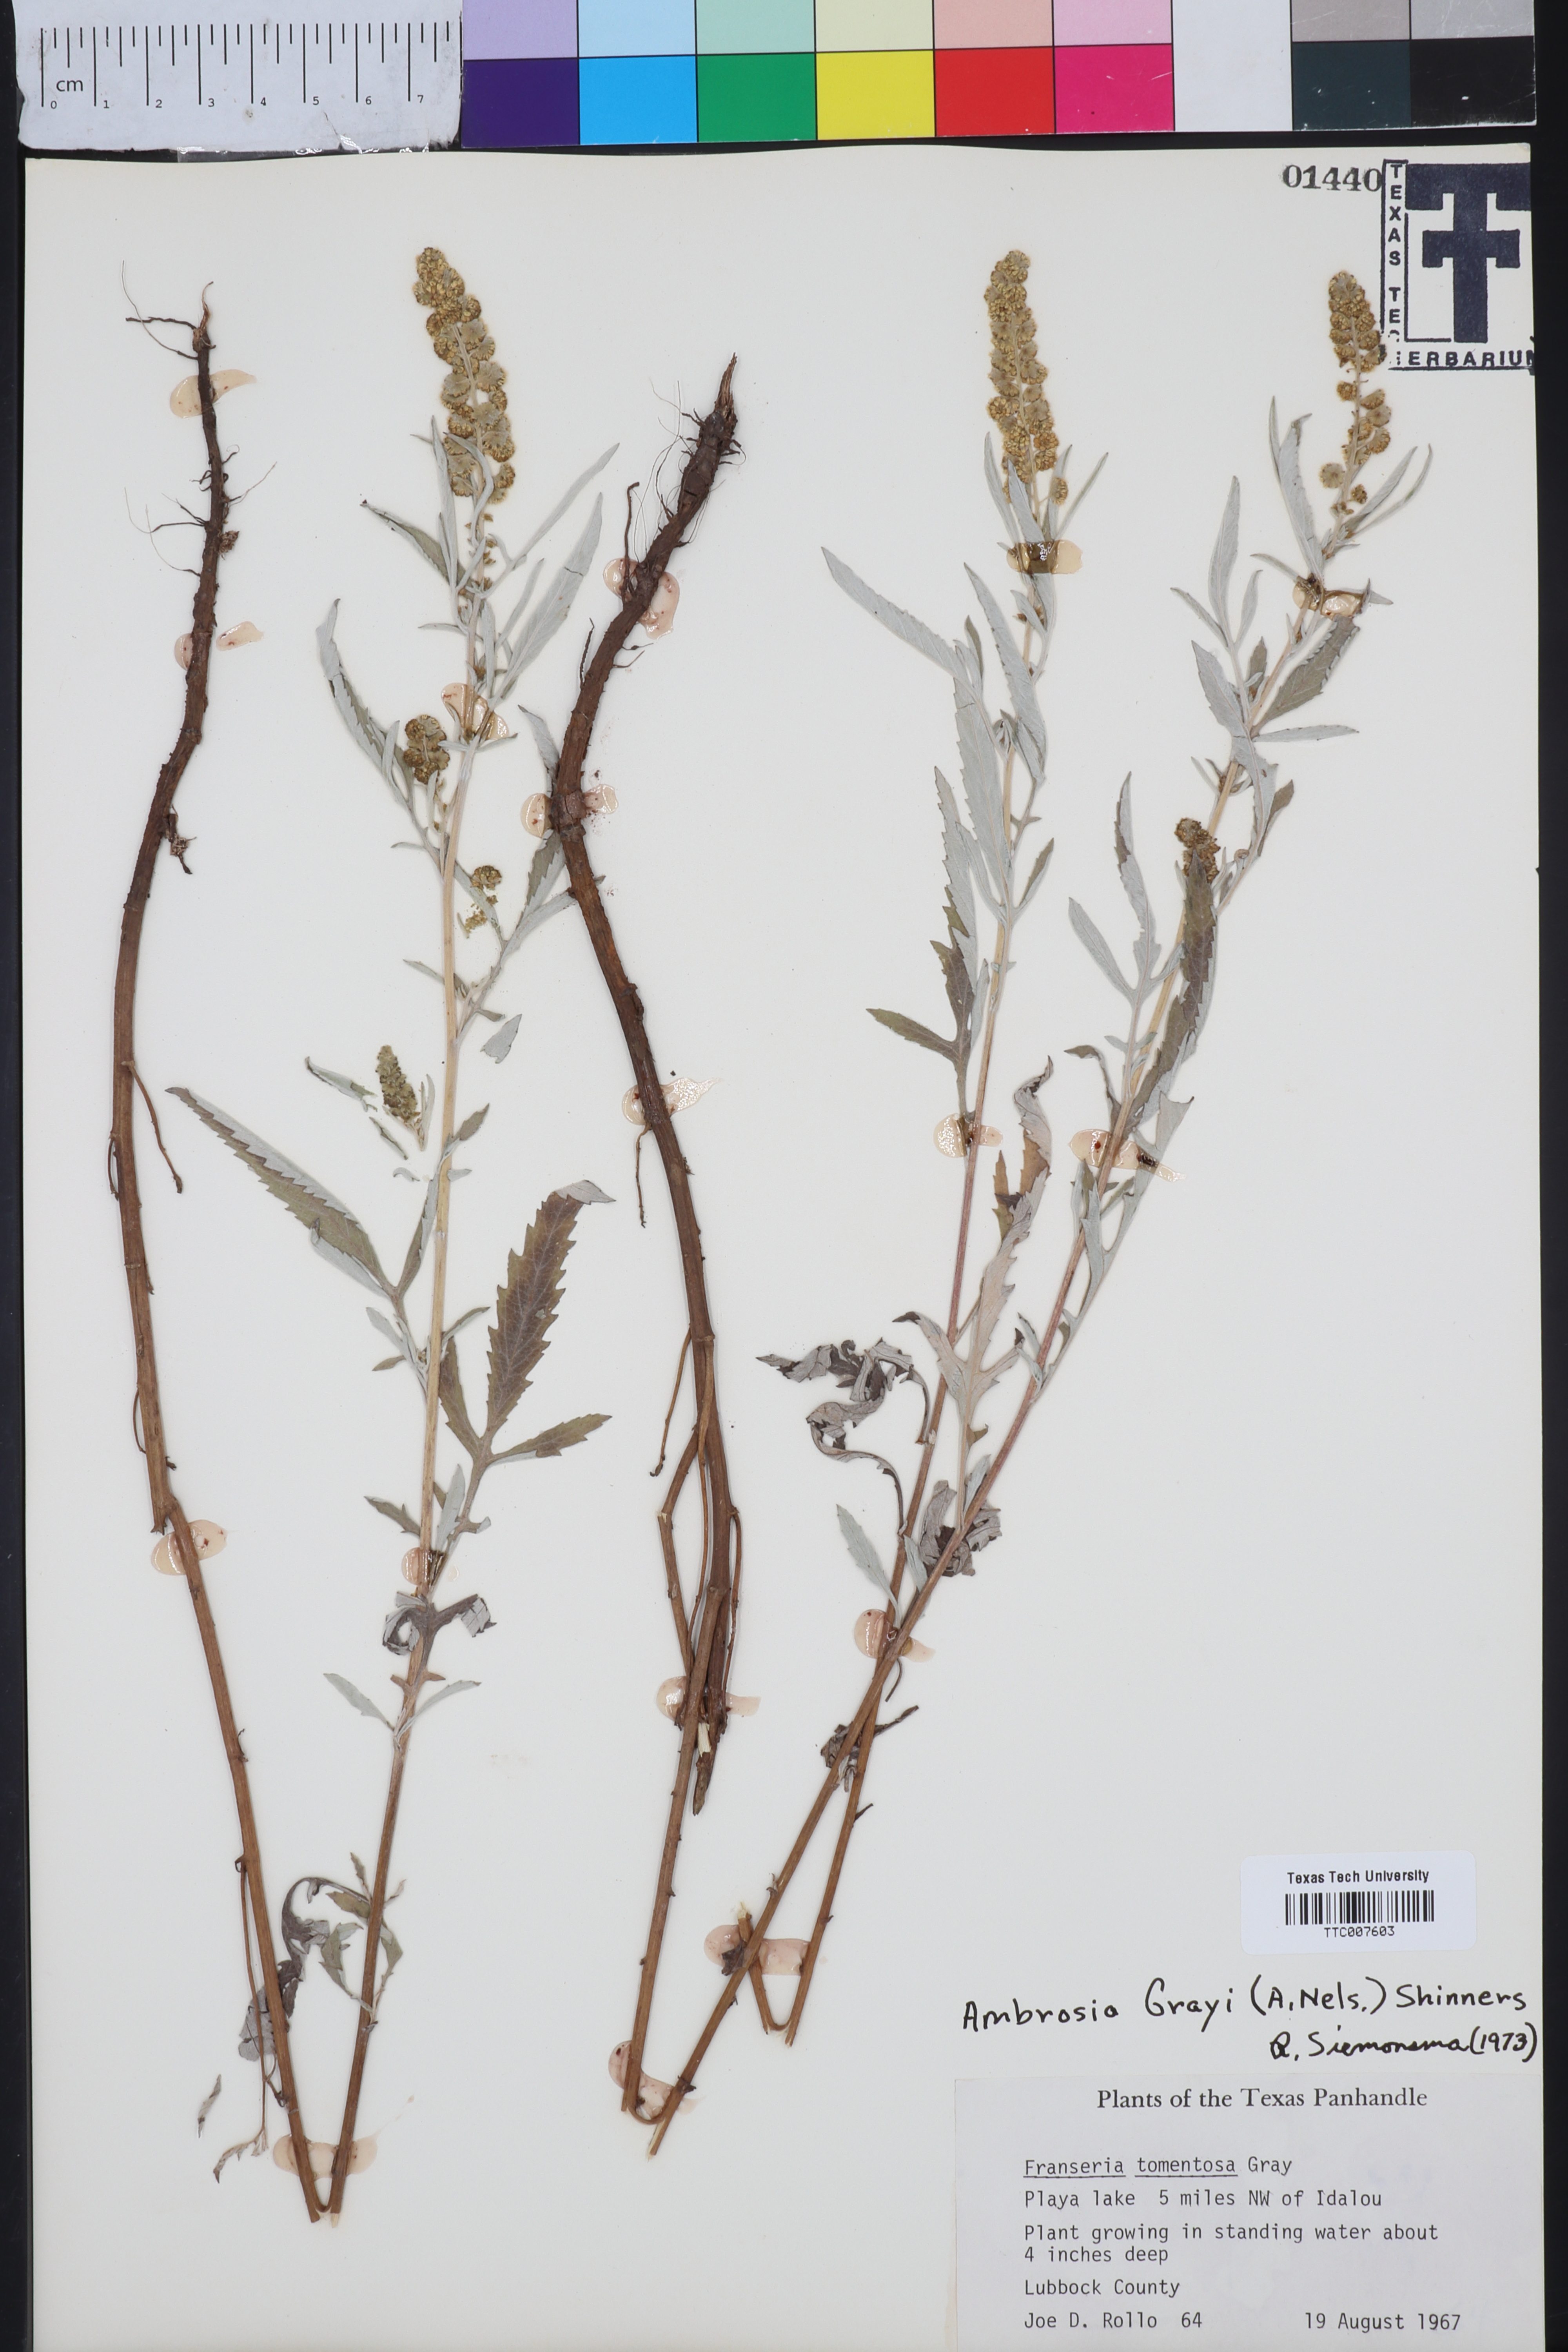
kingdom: Plantae
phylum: Tracheophyta
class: Magnoliopsida
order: Asterales
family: Asteraceae
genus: Ambrosia
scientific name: Ambrosia grayi
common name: Bur ragweed
